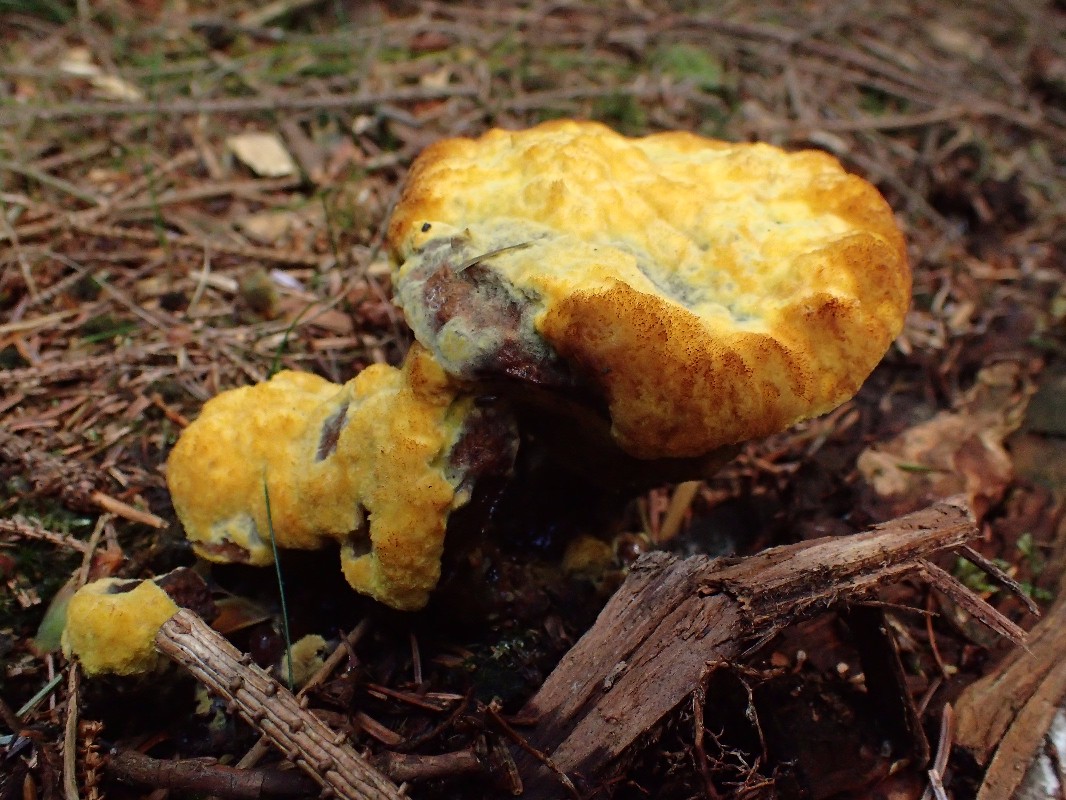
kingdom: Fungi
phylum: Basidiomycota
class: Agaricomycetes
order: Polyporales
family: Laetiporaceae
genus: Phaeolus
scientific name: Phaeolus schweinitzii
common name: brunporesvamp
